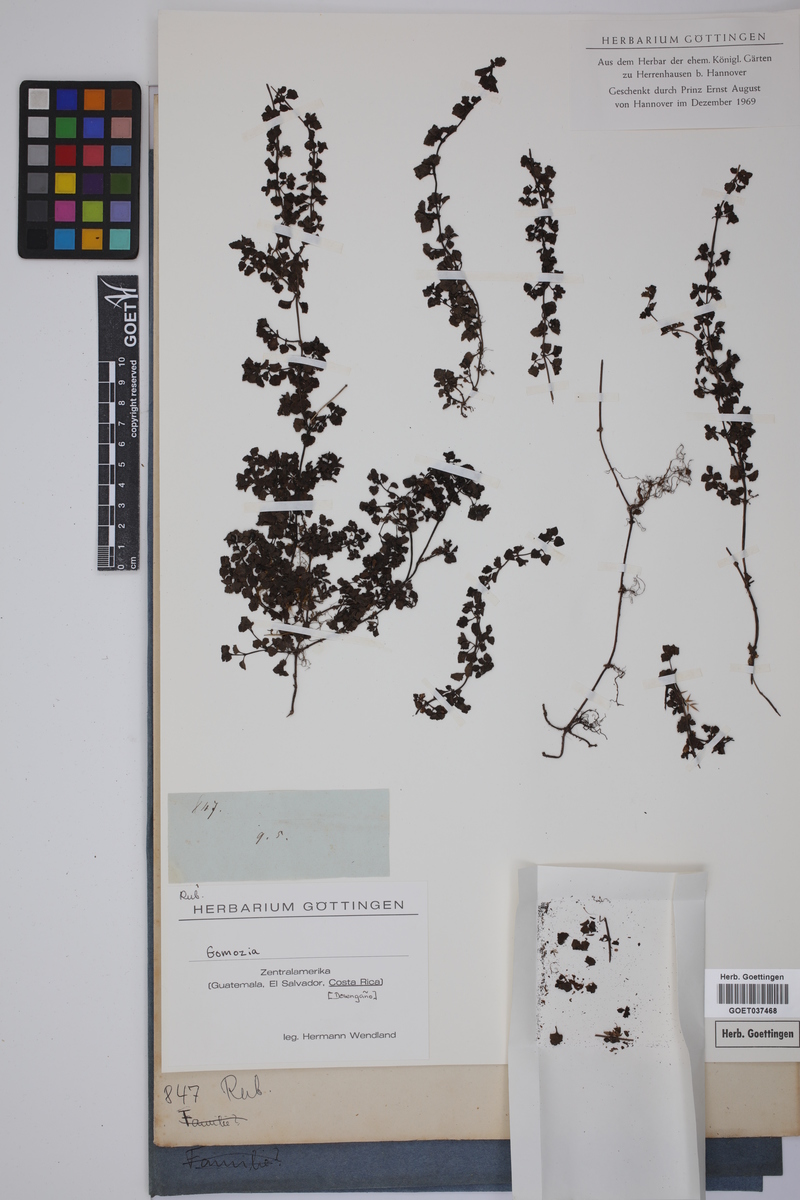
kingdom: Plantae
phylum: Tracheophyta
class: Magnoliopsida
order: Gentianales
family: Rubiaceae
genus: Nertera
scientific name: Nertera
